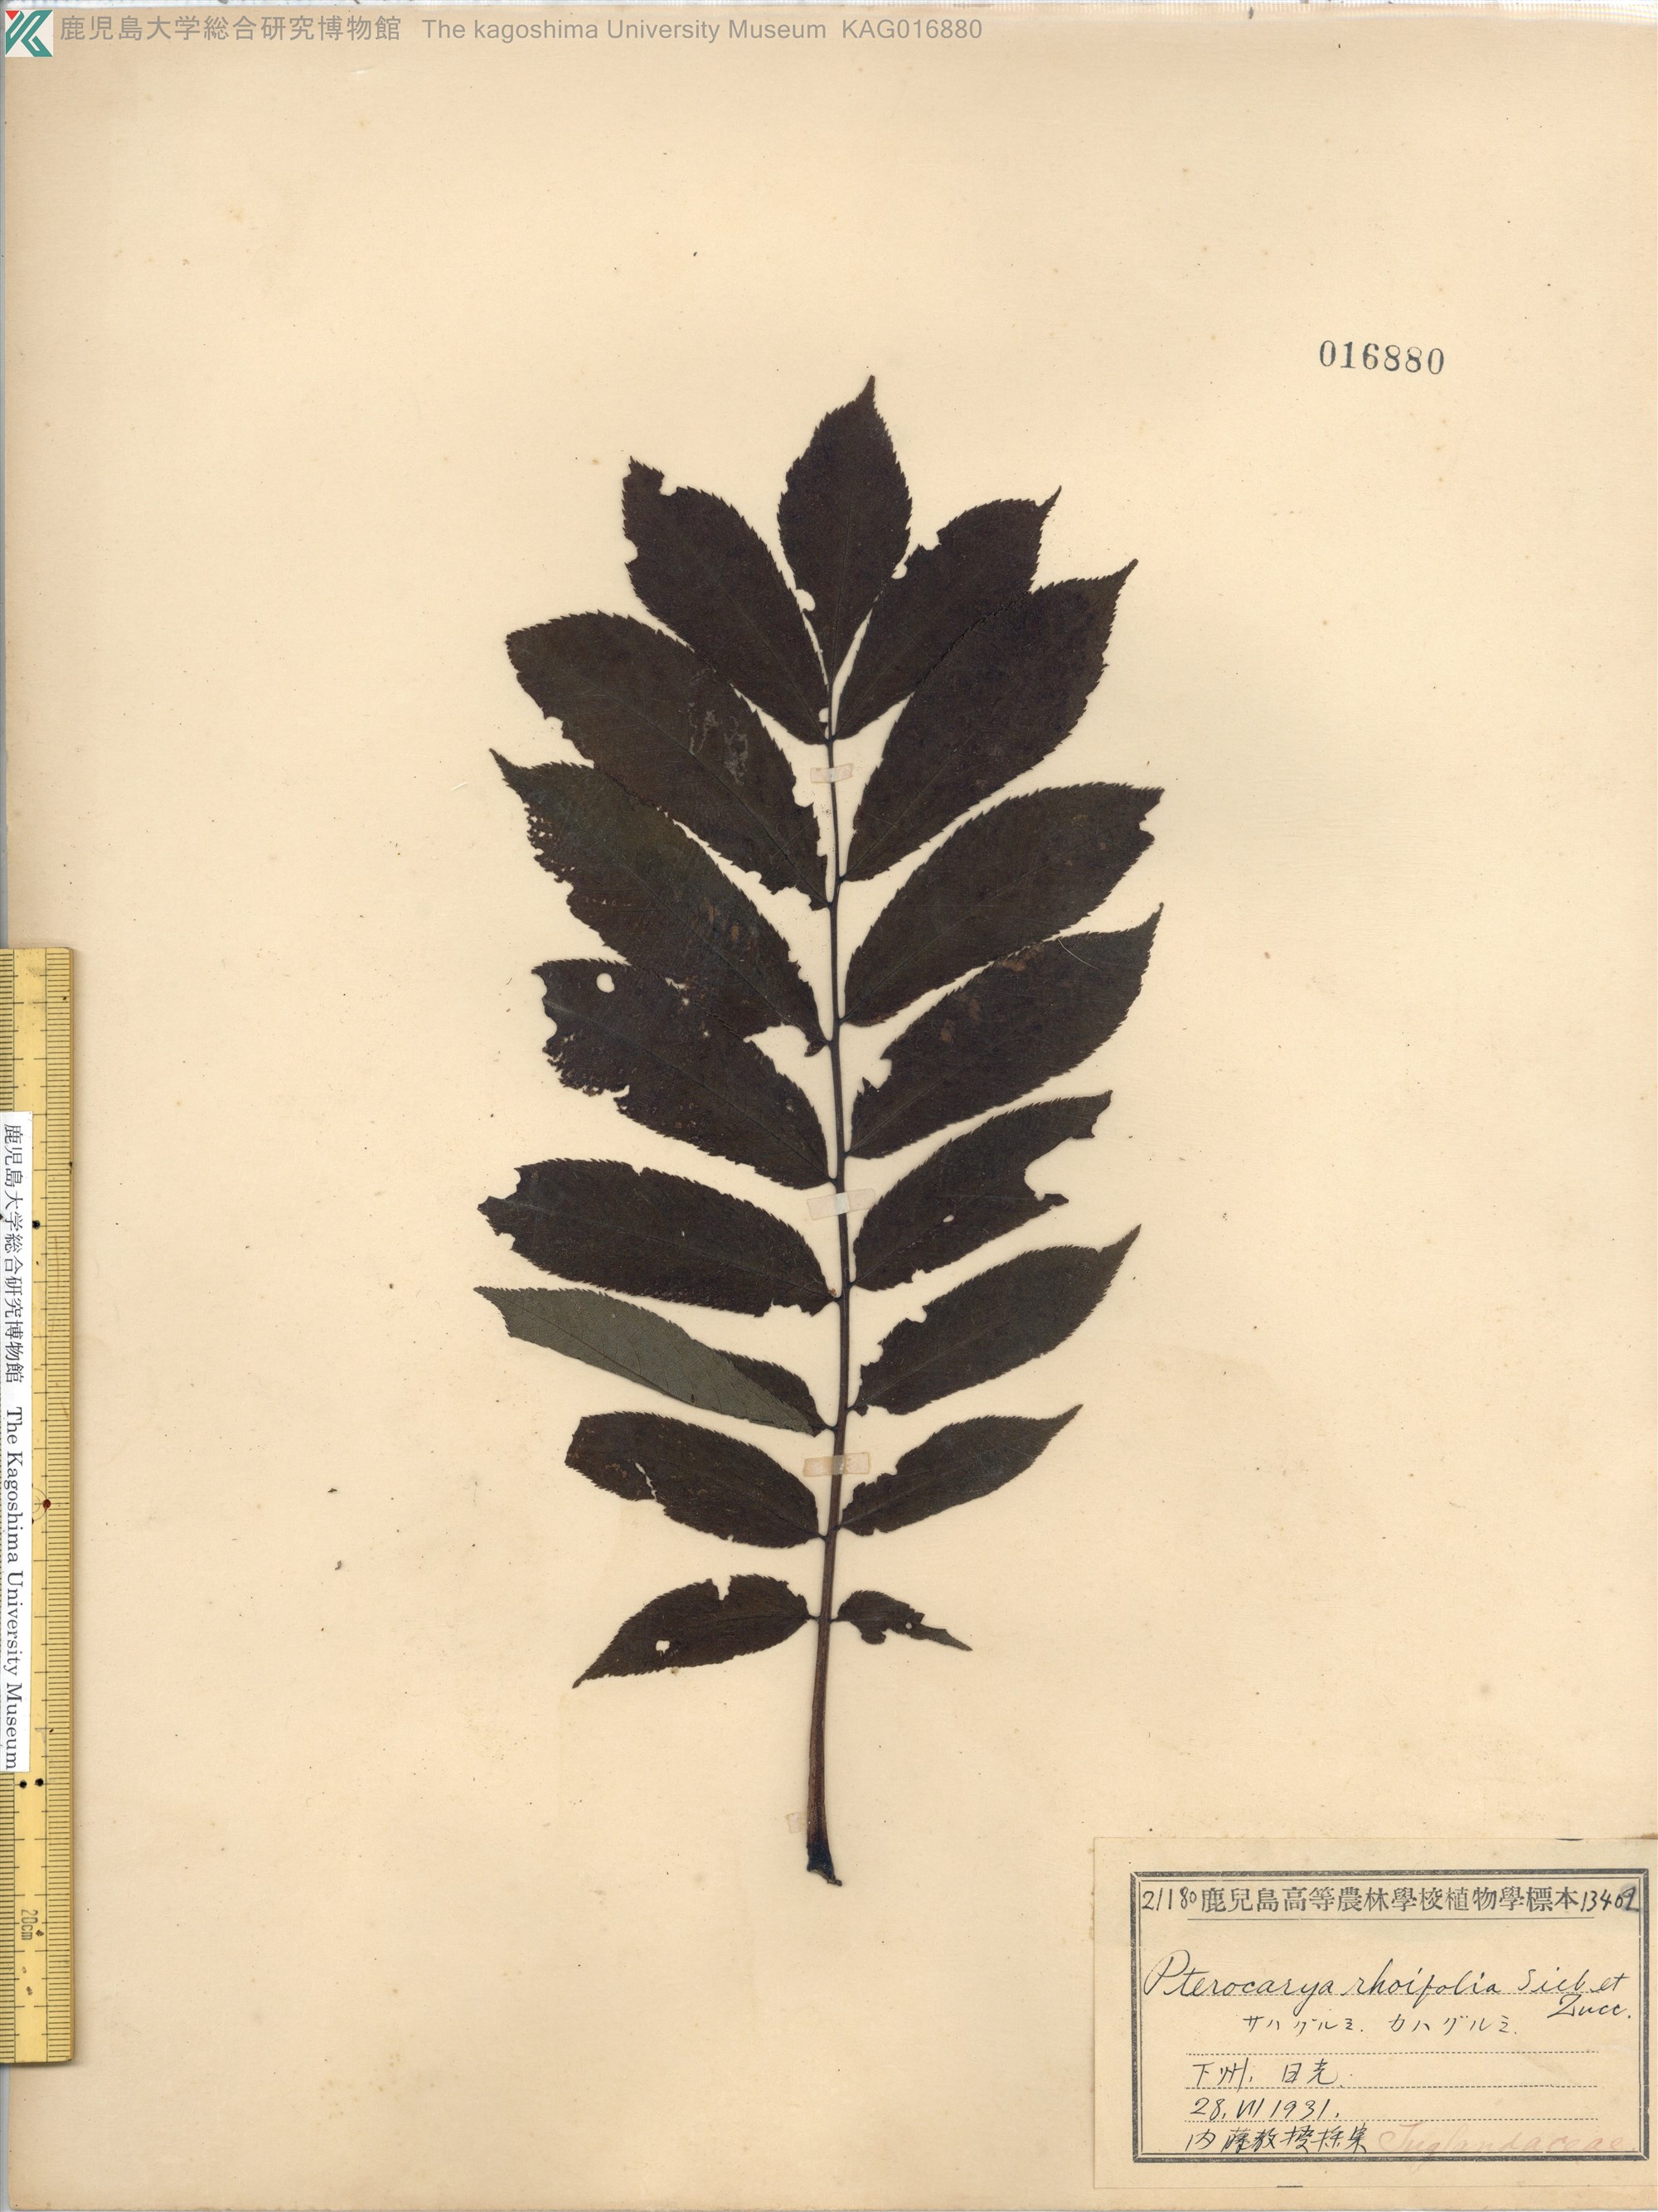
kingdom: Plantae
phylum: Tracheophyta
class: Magnoliopsida
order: Fagales
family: Juglandaceae
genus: Pterocarya
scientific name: Pterocarya rhoifolia
